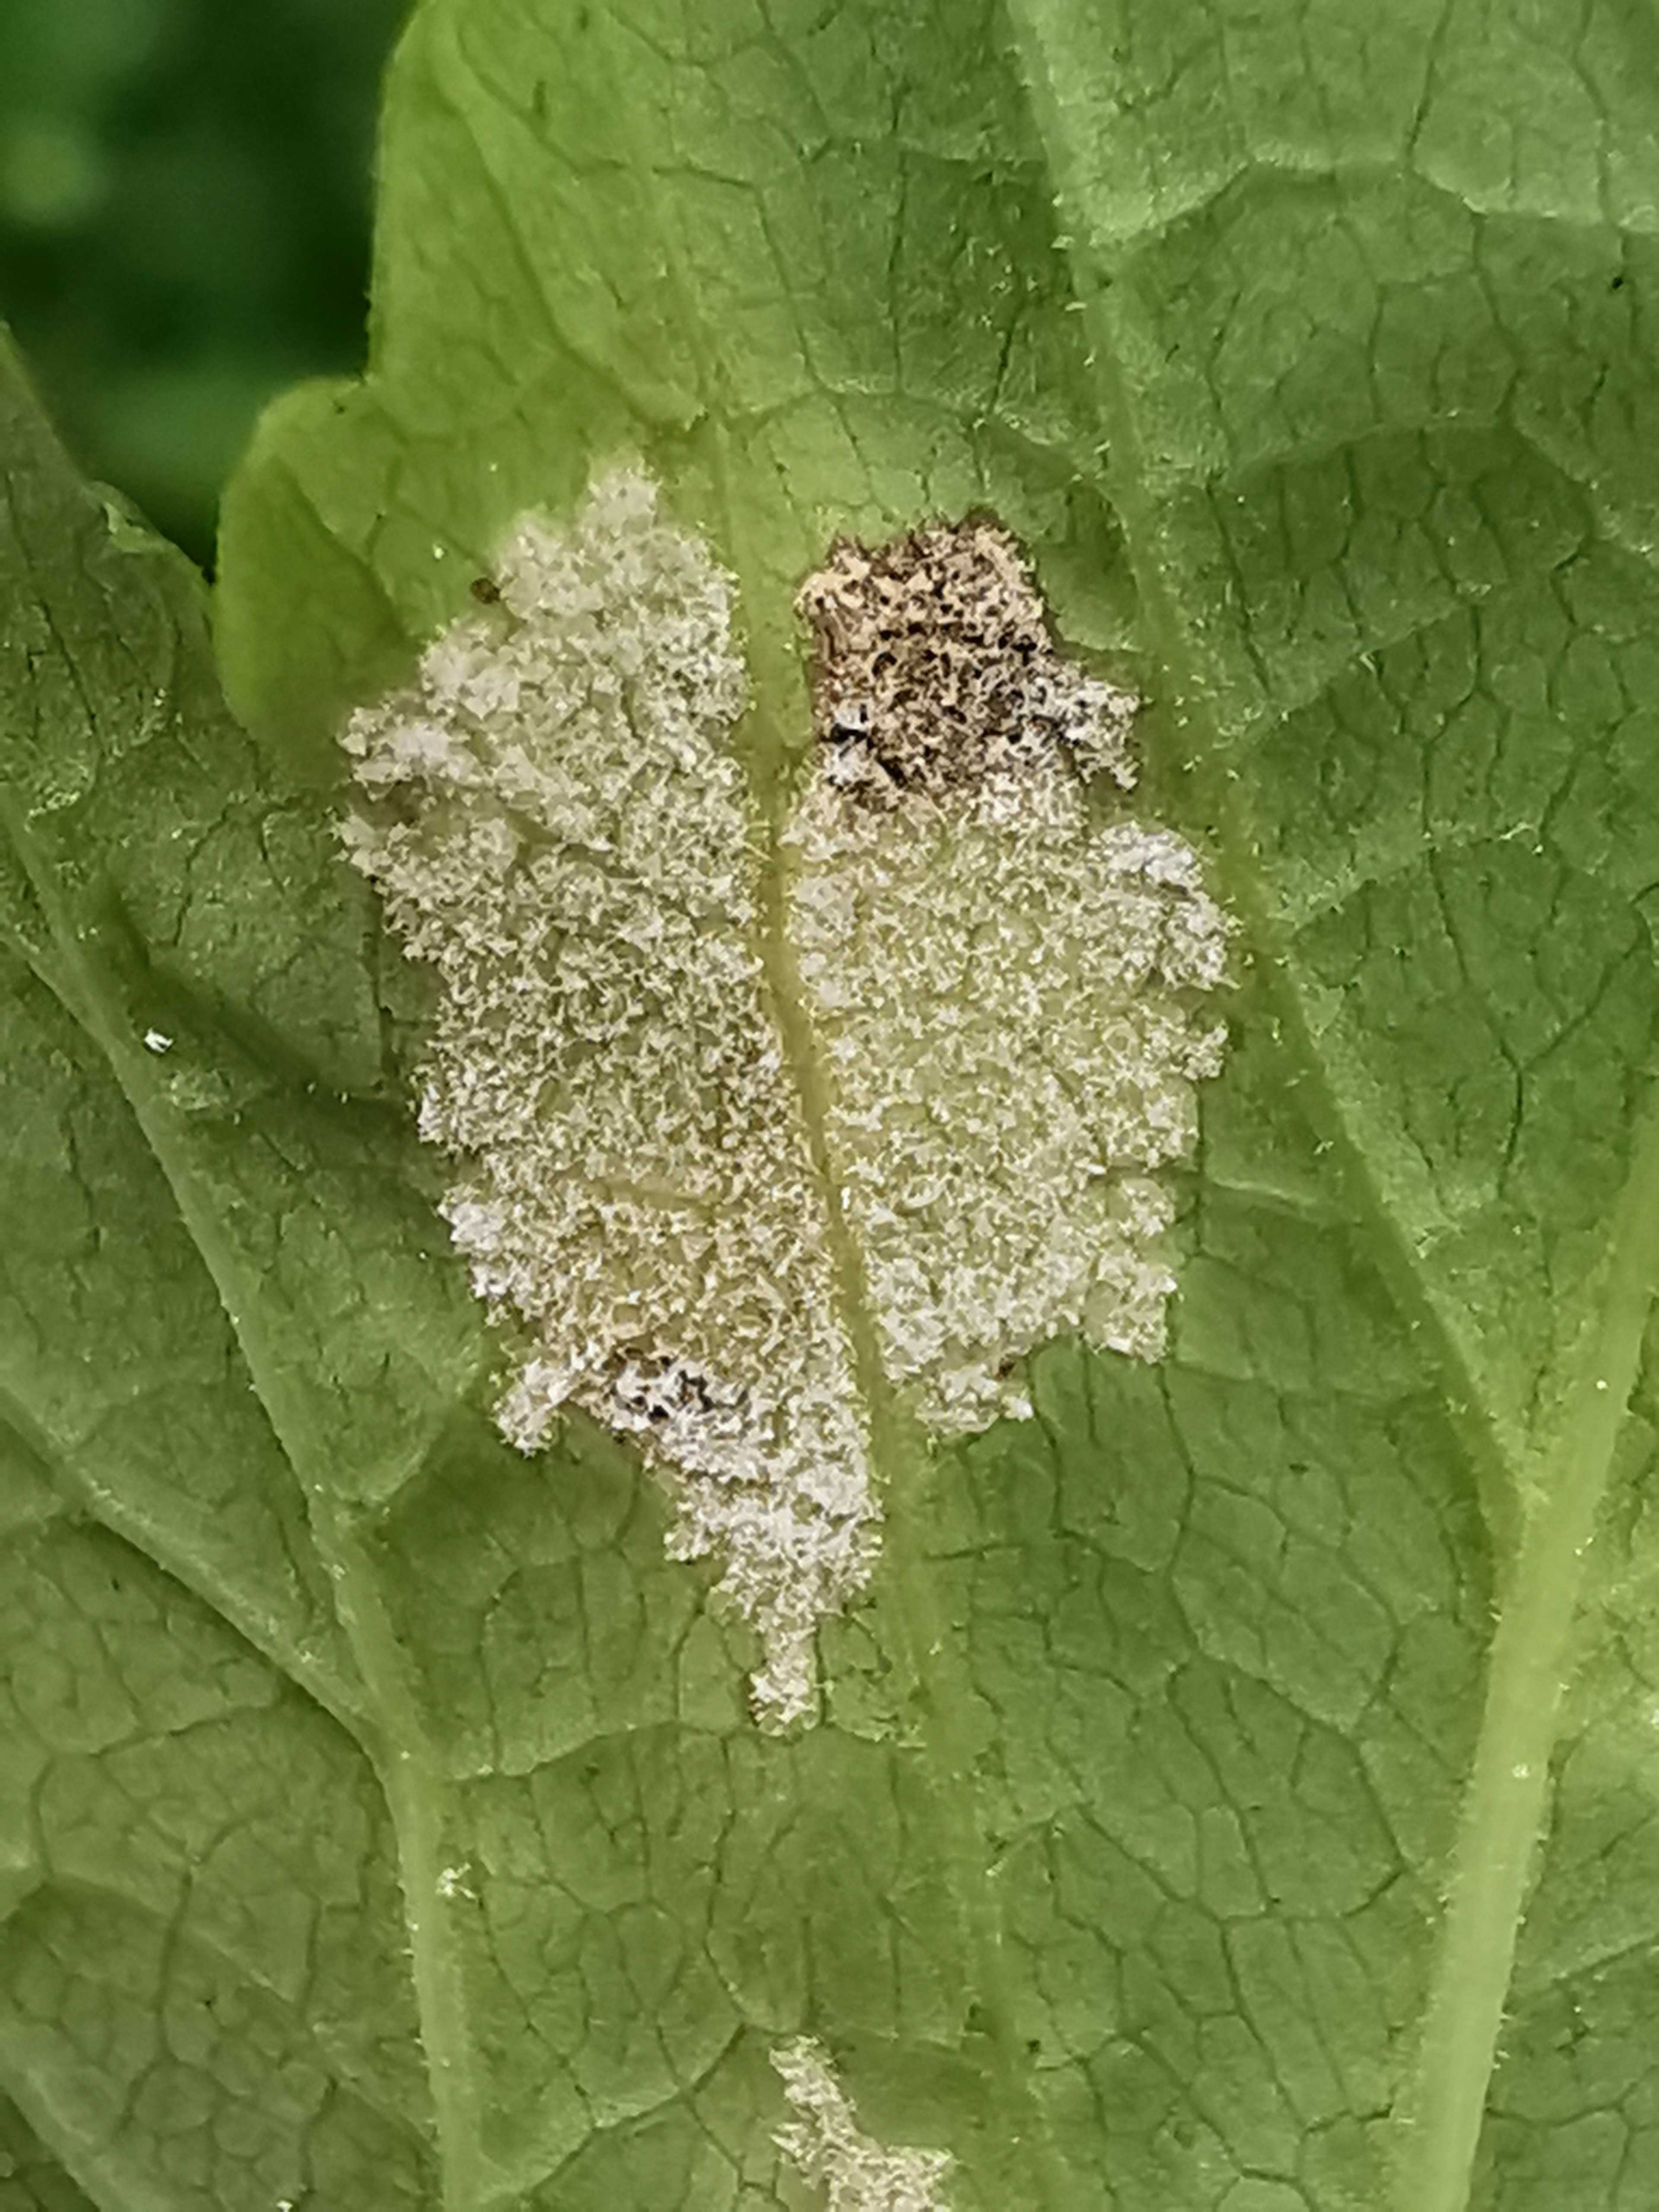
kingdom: Chromista
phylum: Oomycota
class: Peronosporea
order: Peronosporales
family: Peronosporaceae
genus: Peronospora
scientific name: Peronospora crustosa
